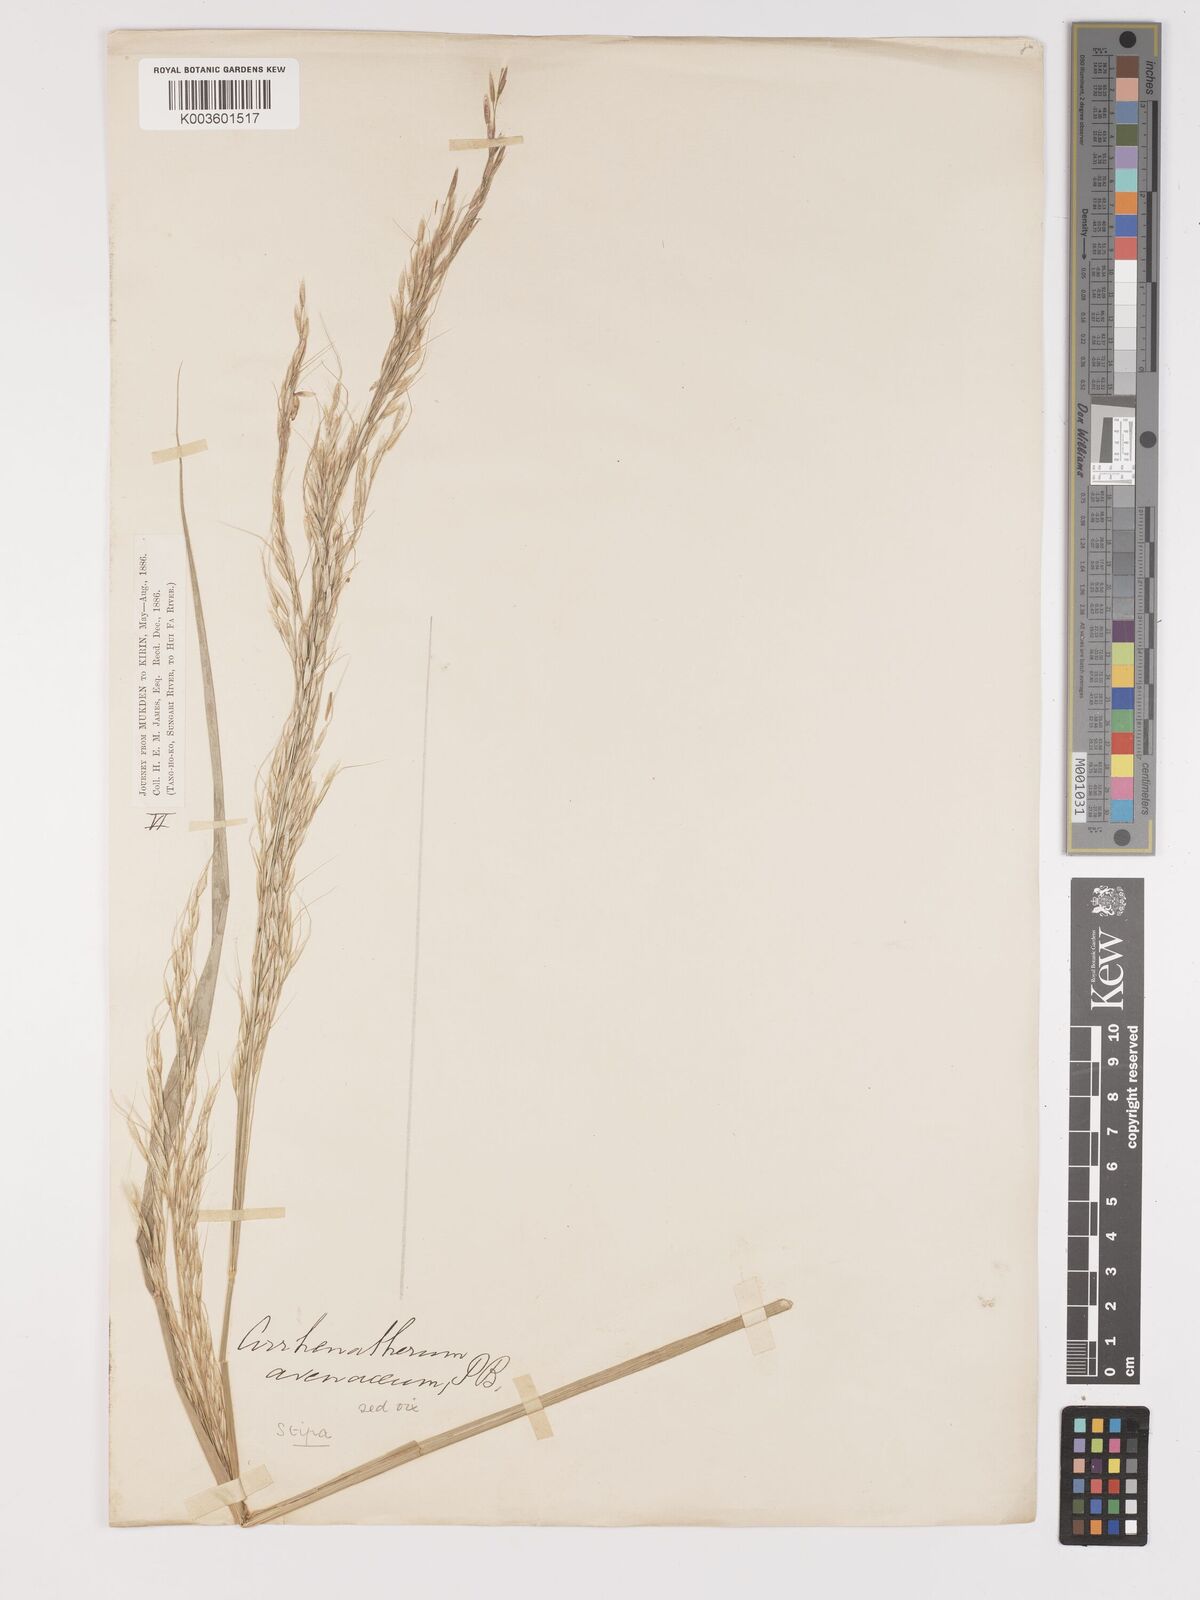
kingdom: Plantae
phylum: Tracheophyta
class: Liliopsida
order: Poales
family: Poaceae
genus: Stipa
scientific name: Stipa
